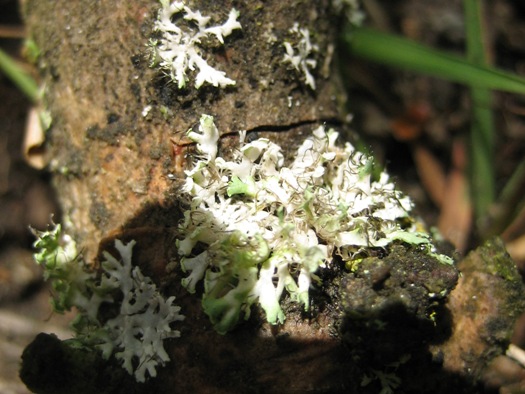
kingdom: Fungi
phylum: Ascomycota
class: Lecanoromycetes
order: Caliciales
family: Physciaceae
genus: Physcia
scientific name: Physcia tenella
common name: spæd rosetlav
